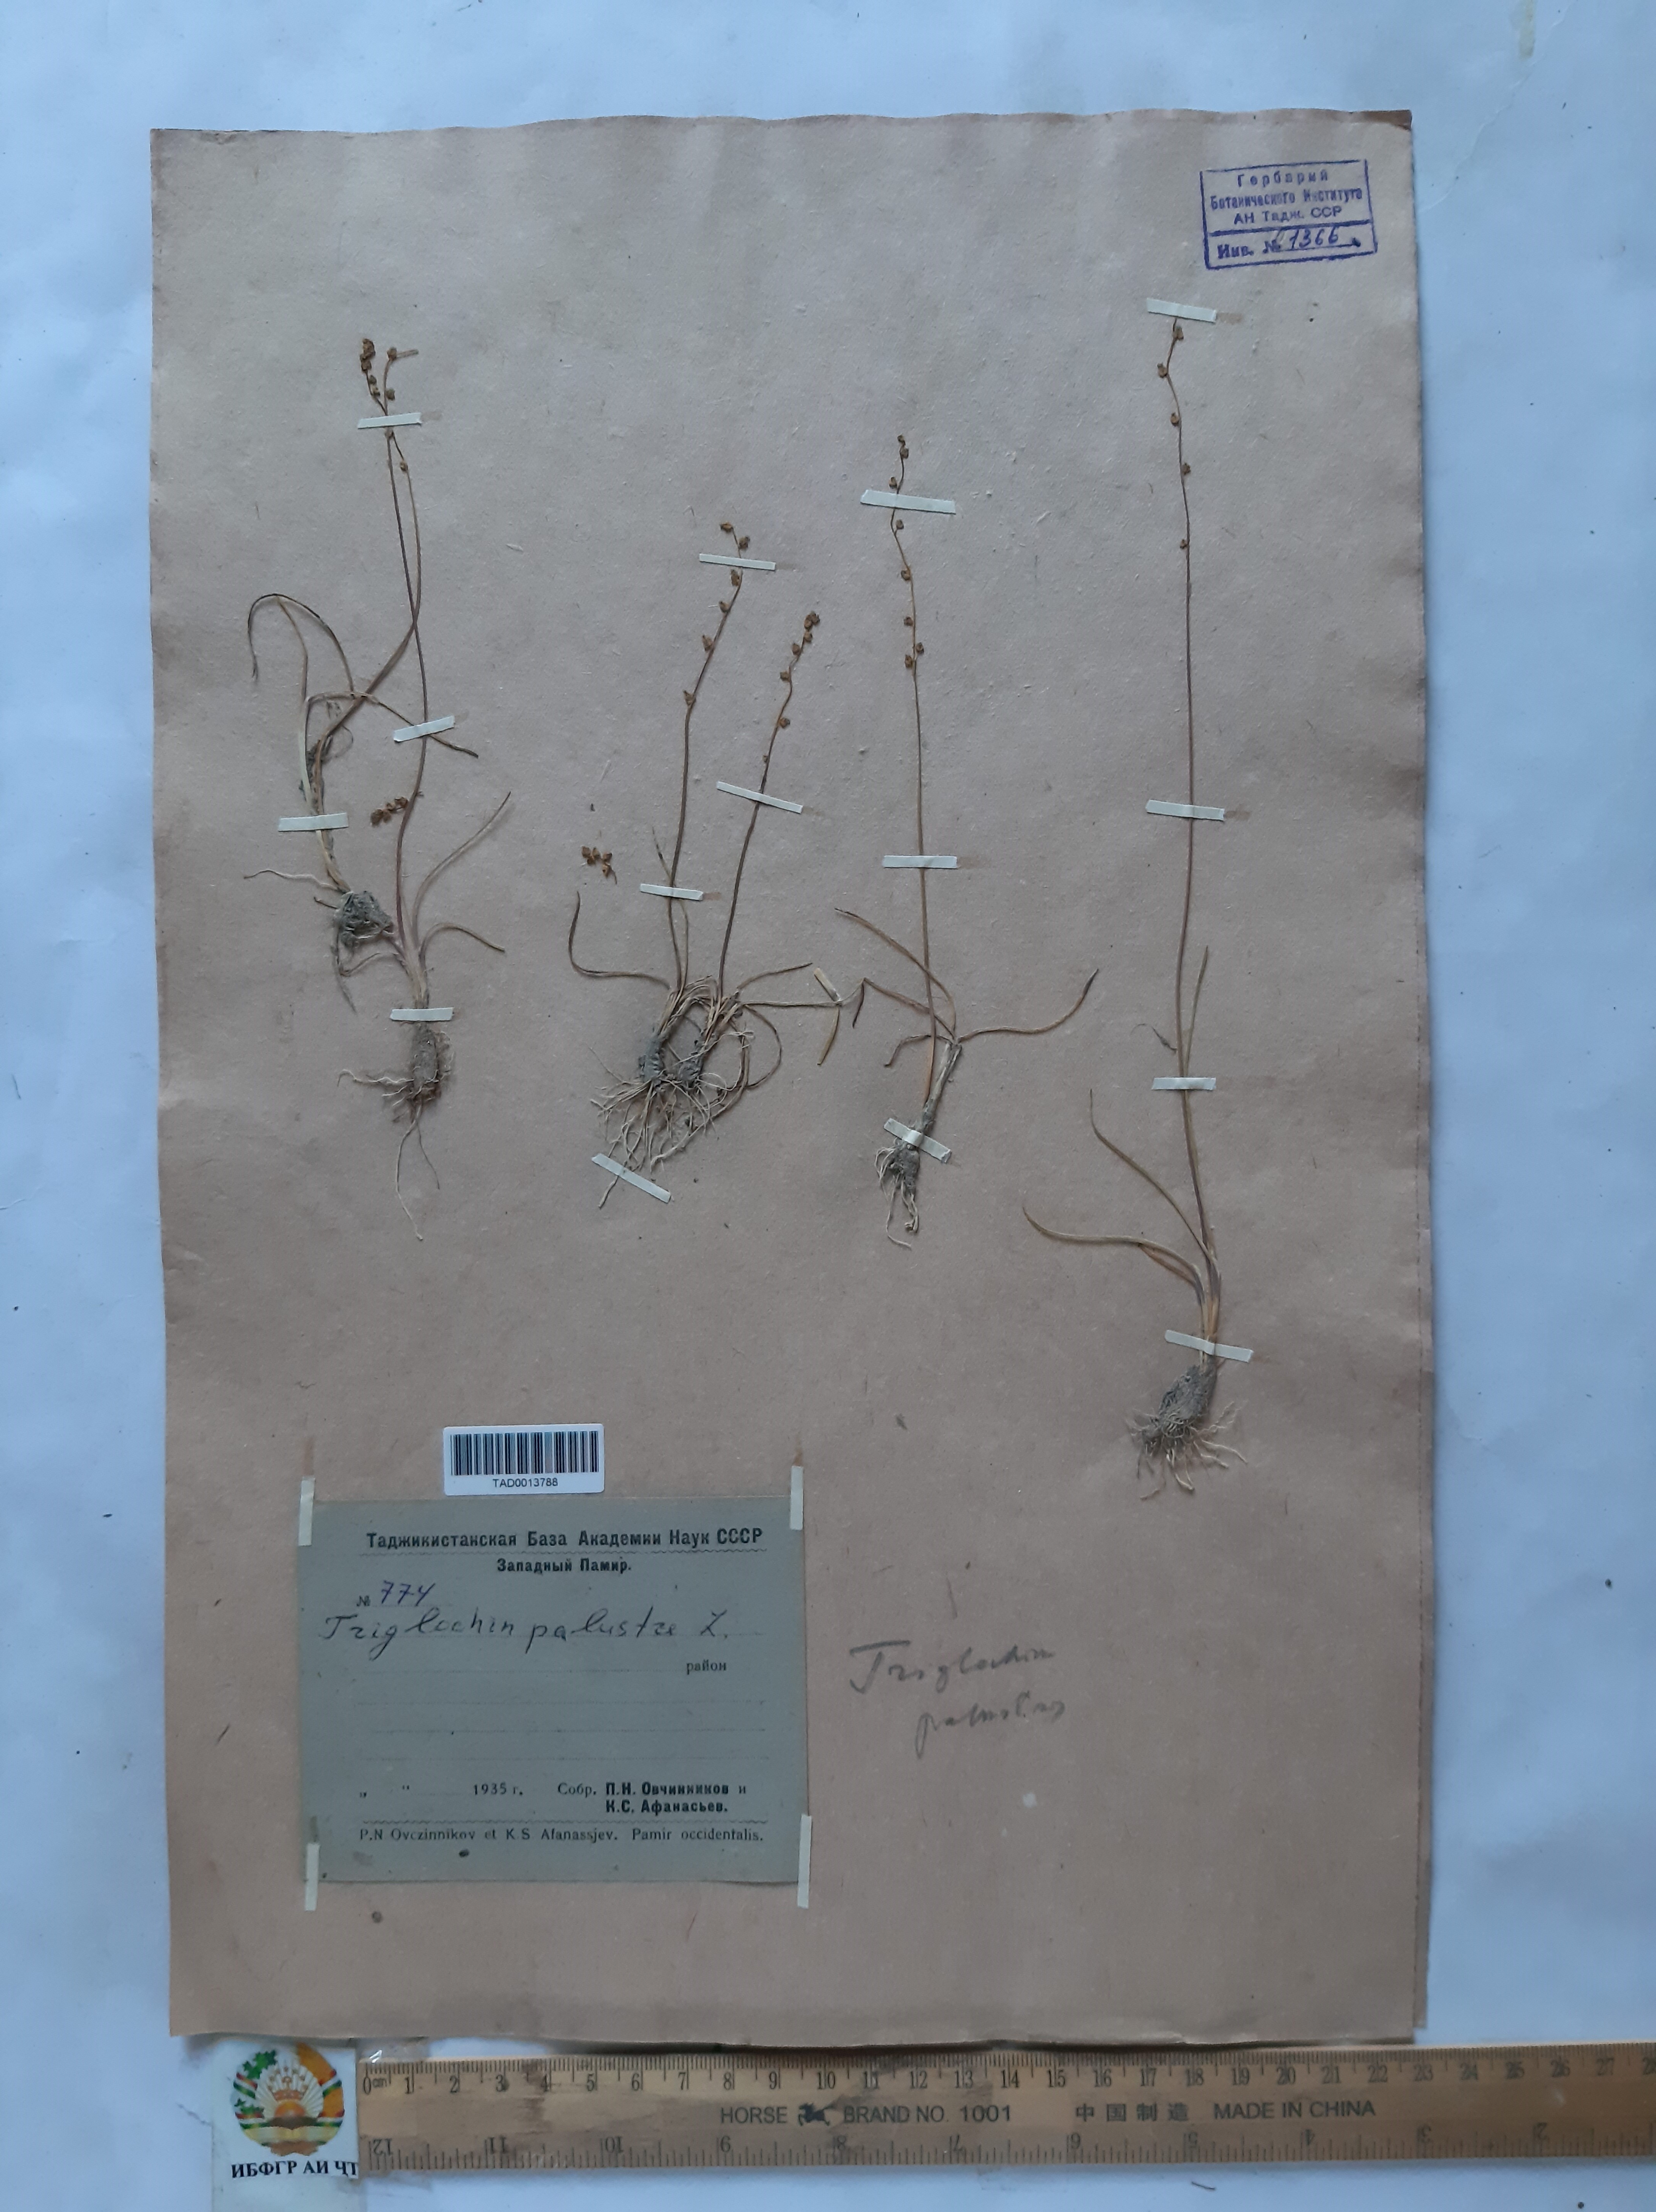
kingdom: Plantae
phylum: Tracheophyta
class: Liliopsida
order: Alismatales
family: Juncaginaceae
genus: Triglochin
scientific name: Triglochin palustris
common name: Marsh arrowgrass
